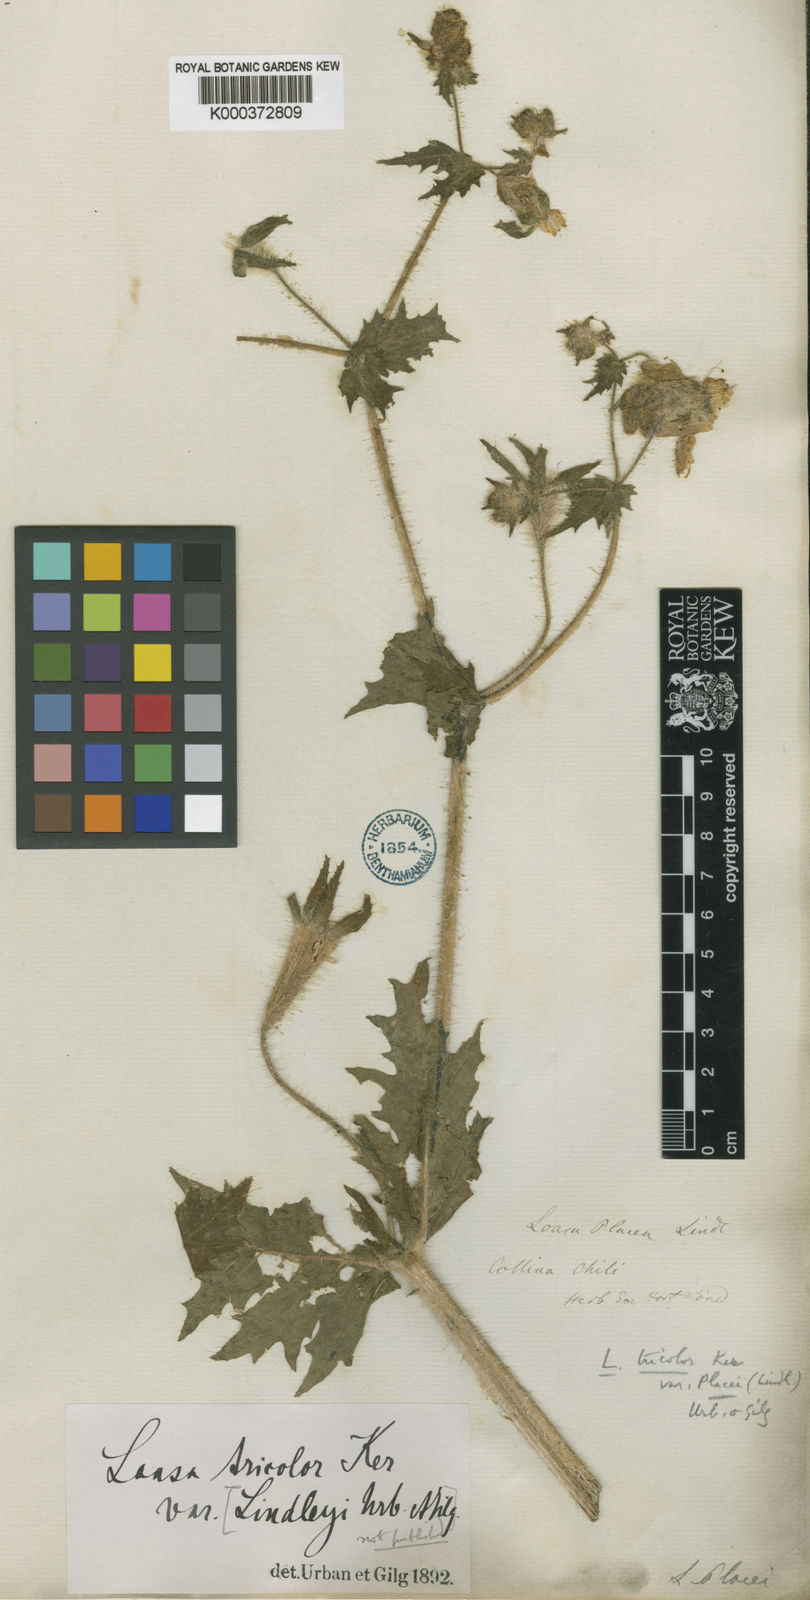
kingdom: Plantae
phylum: Tracheophyta
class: Magnoliopsida
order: Cornales
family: Loasaceae
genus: Loasa
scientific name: Loasa placei
